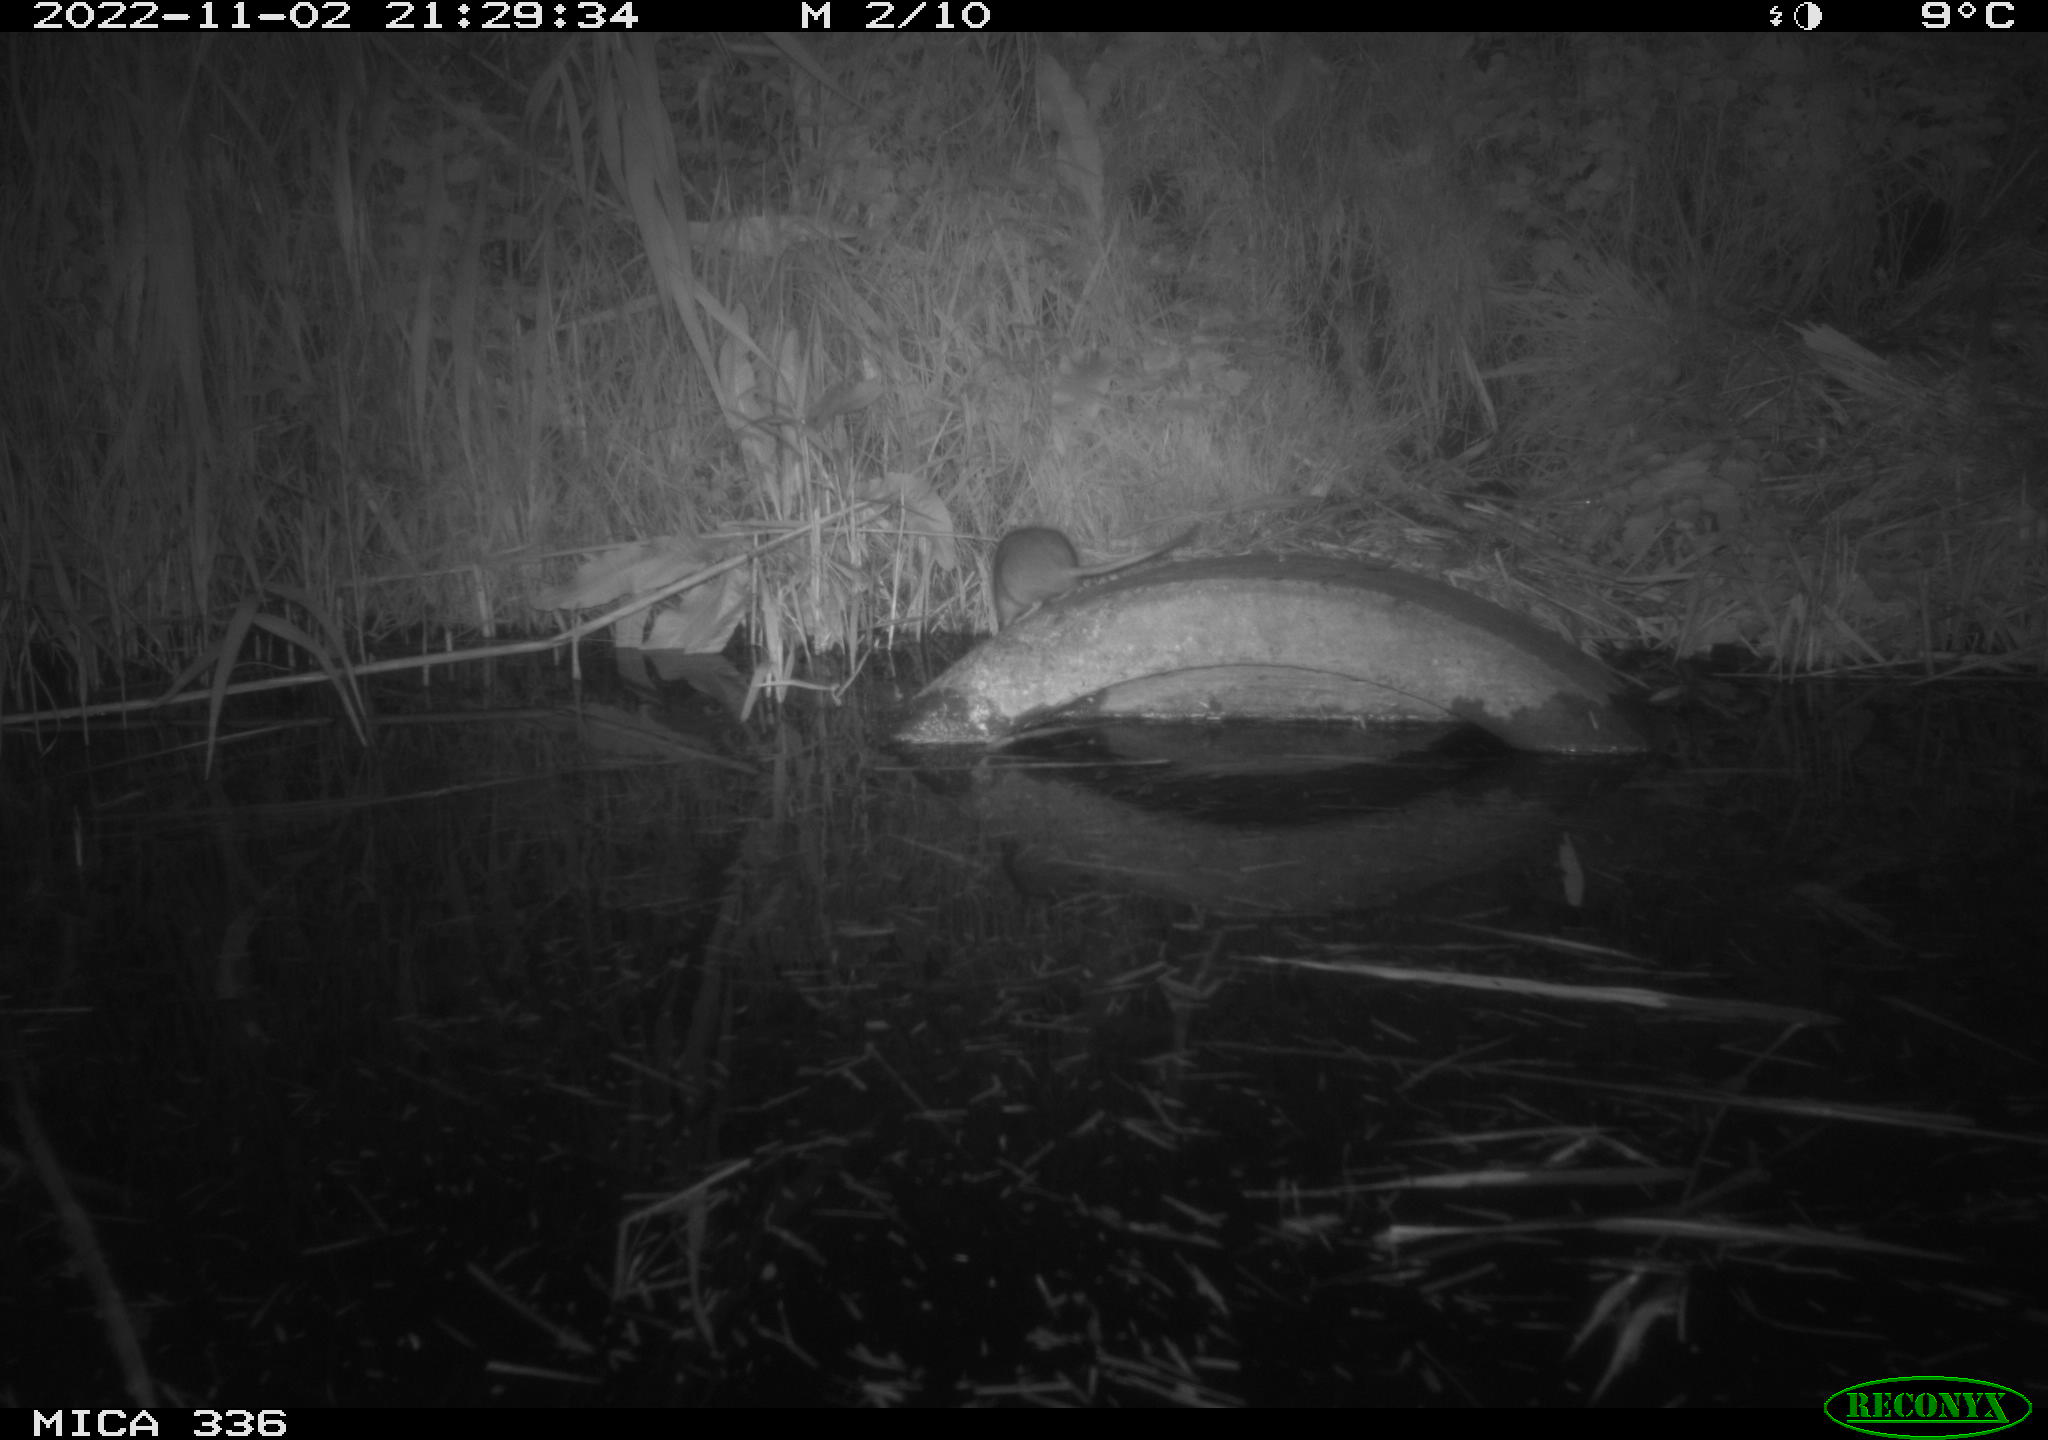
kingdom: Animalia
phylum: Chordata
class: Mammalia
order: Rodentia
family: Muridae
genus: Rattus
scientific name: Rattus norvegicus
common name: Brown rat
